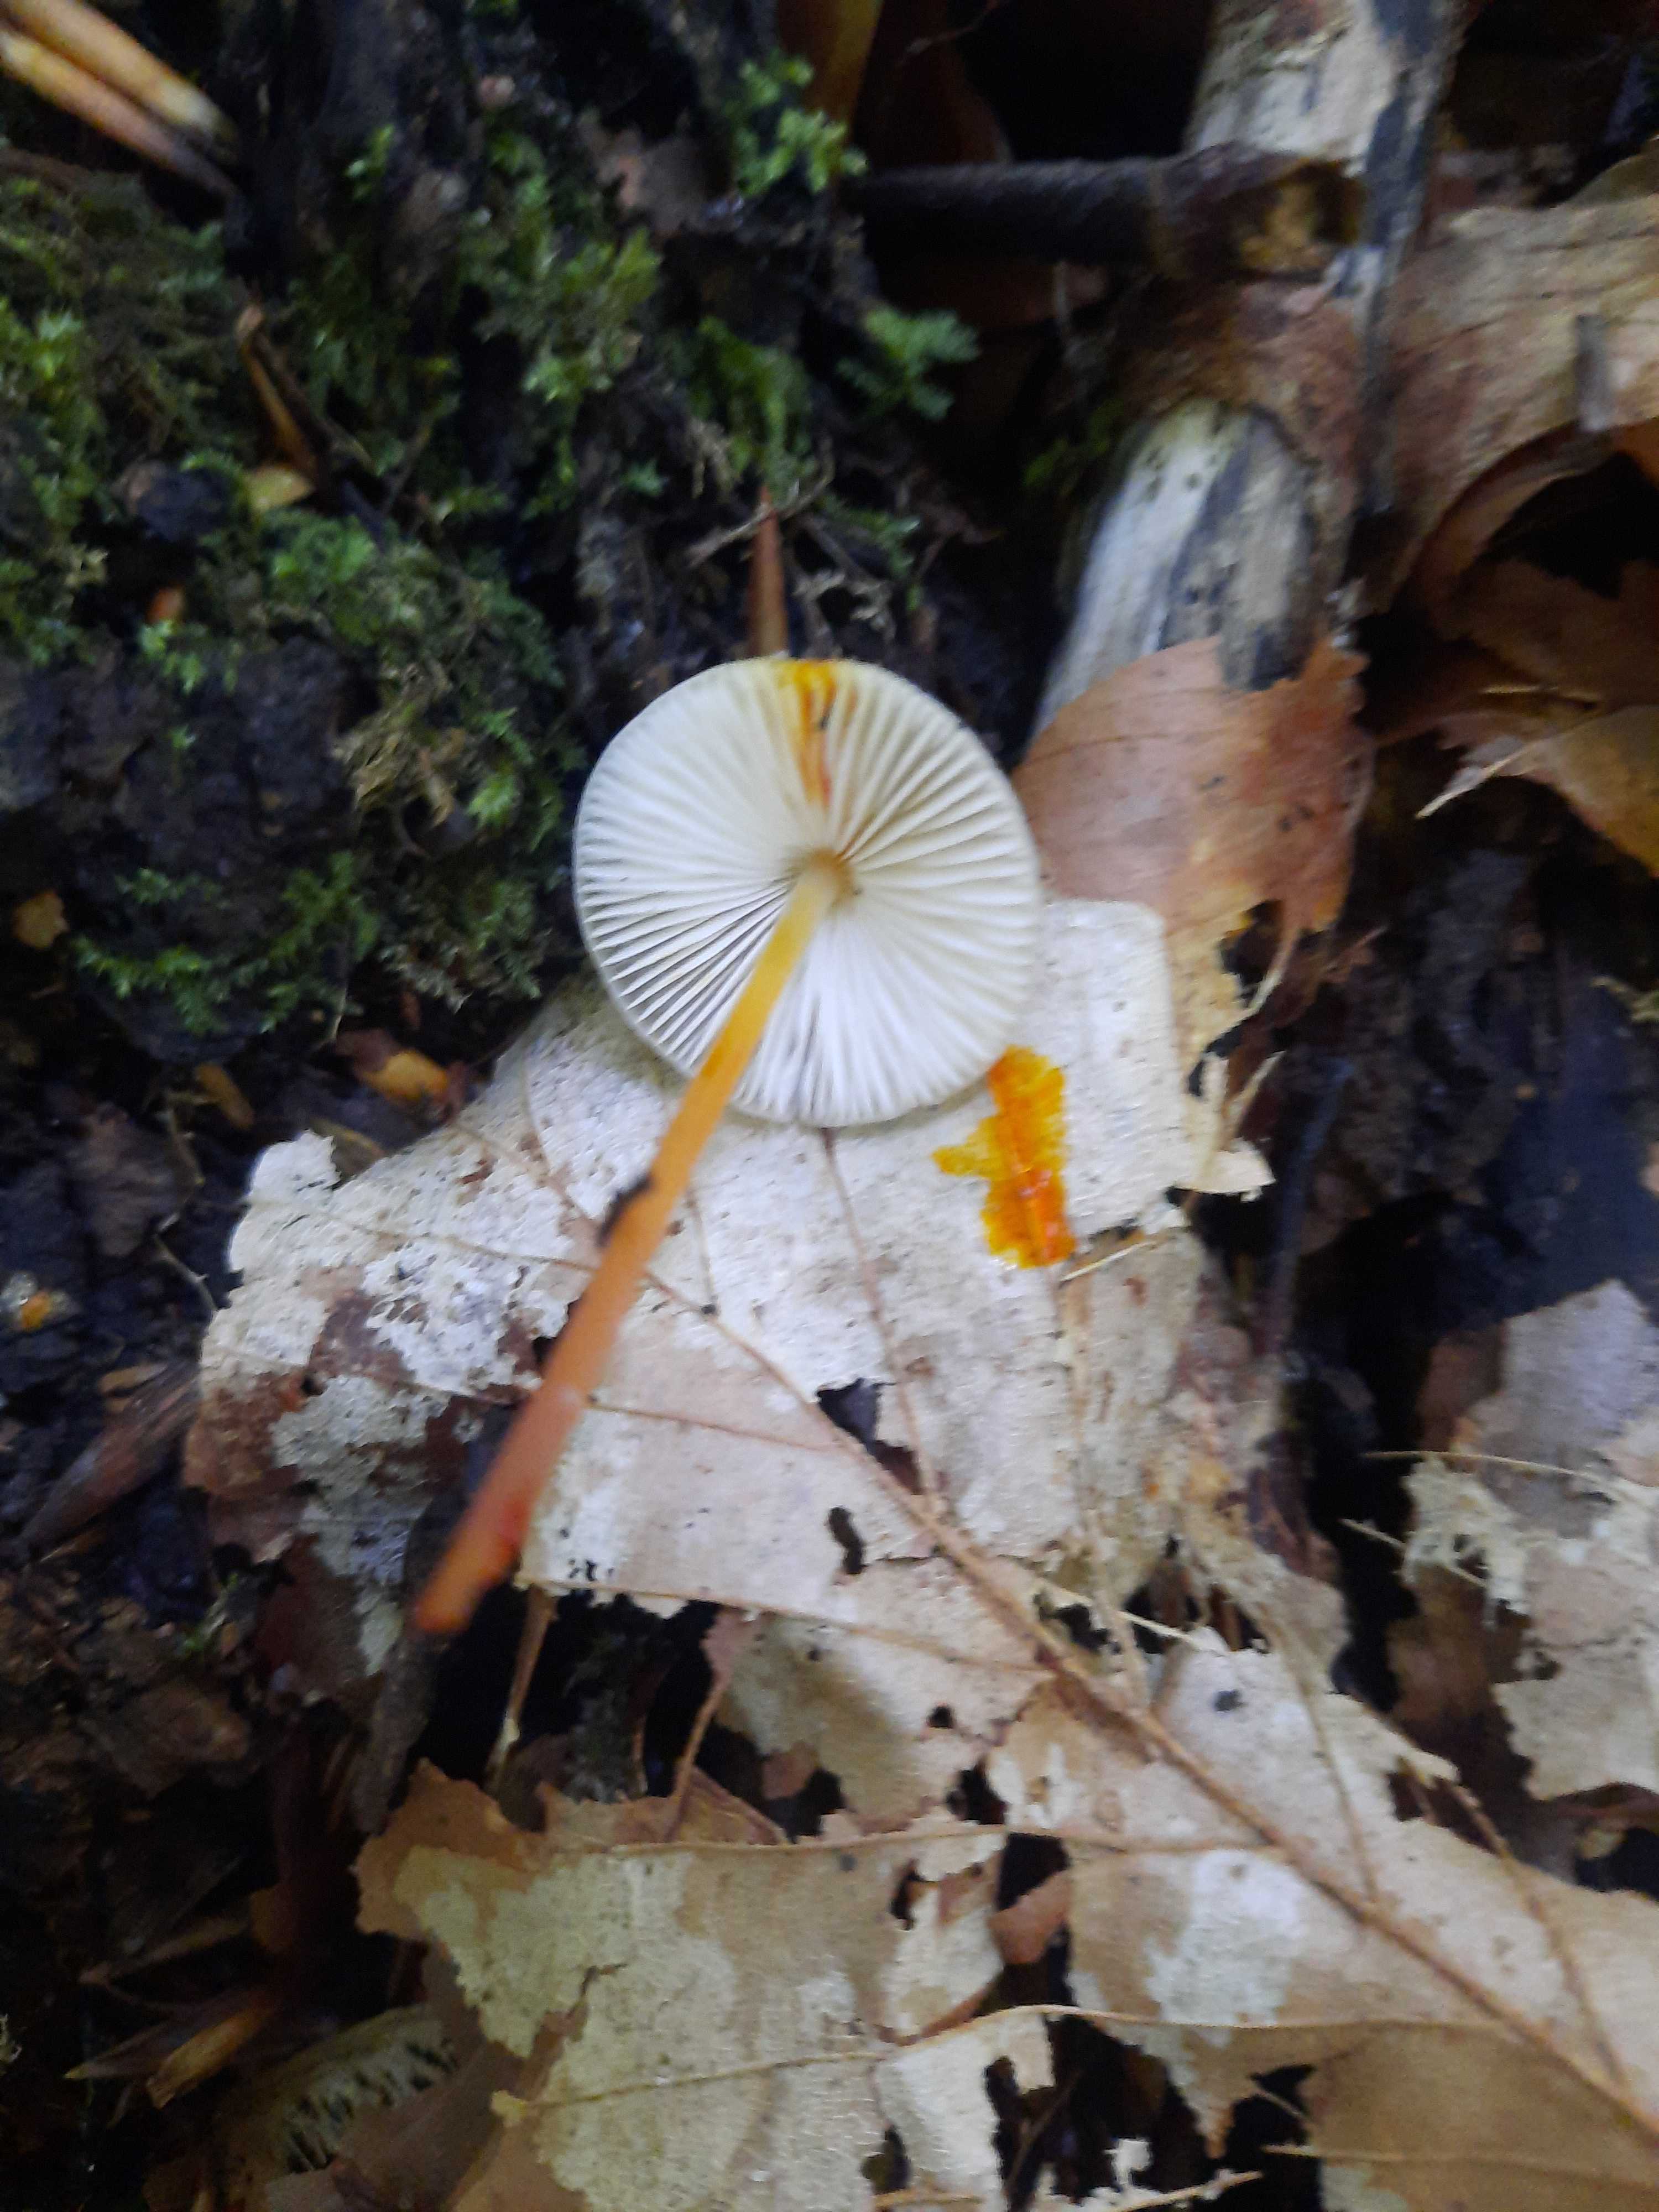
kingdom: Fungi
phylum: Basidiomycota
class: Agaricomycetes
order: Agaricales
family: Mycenaceae
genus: Mycena
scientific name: Mycena crocata
